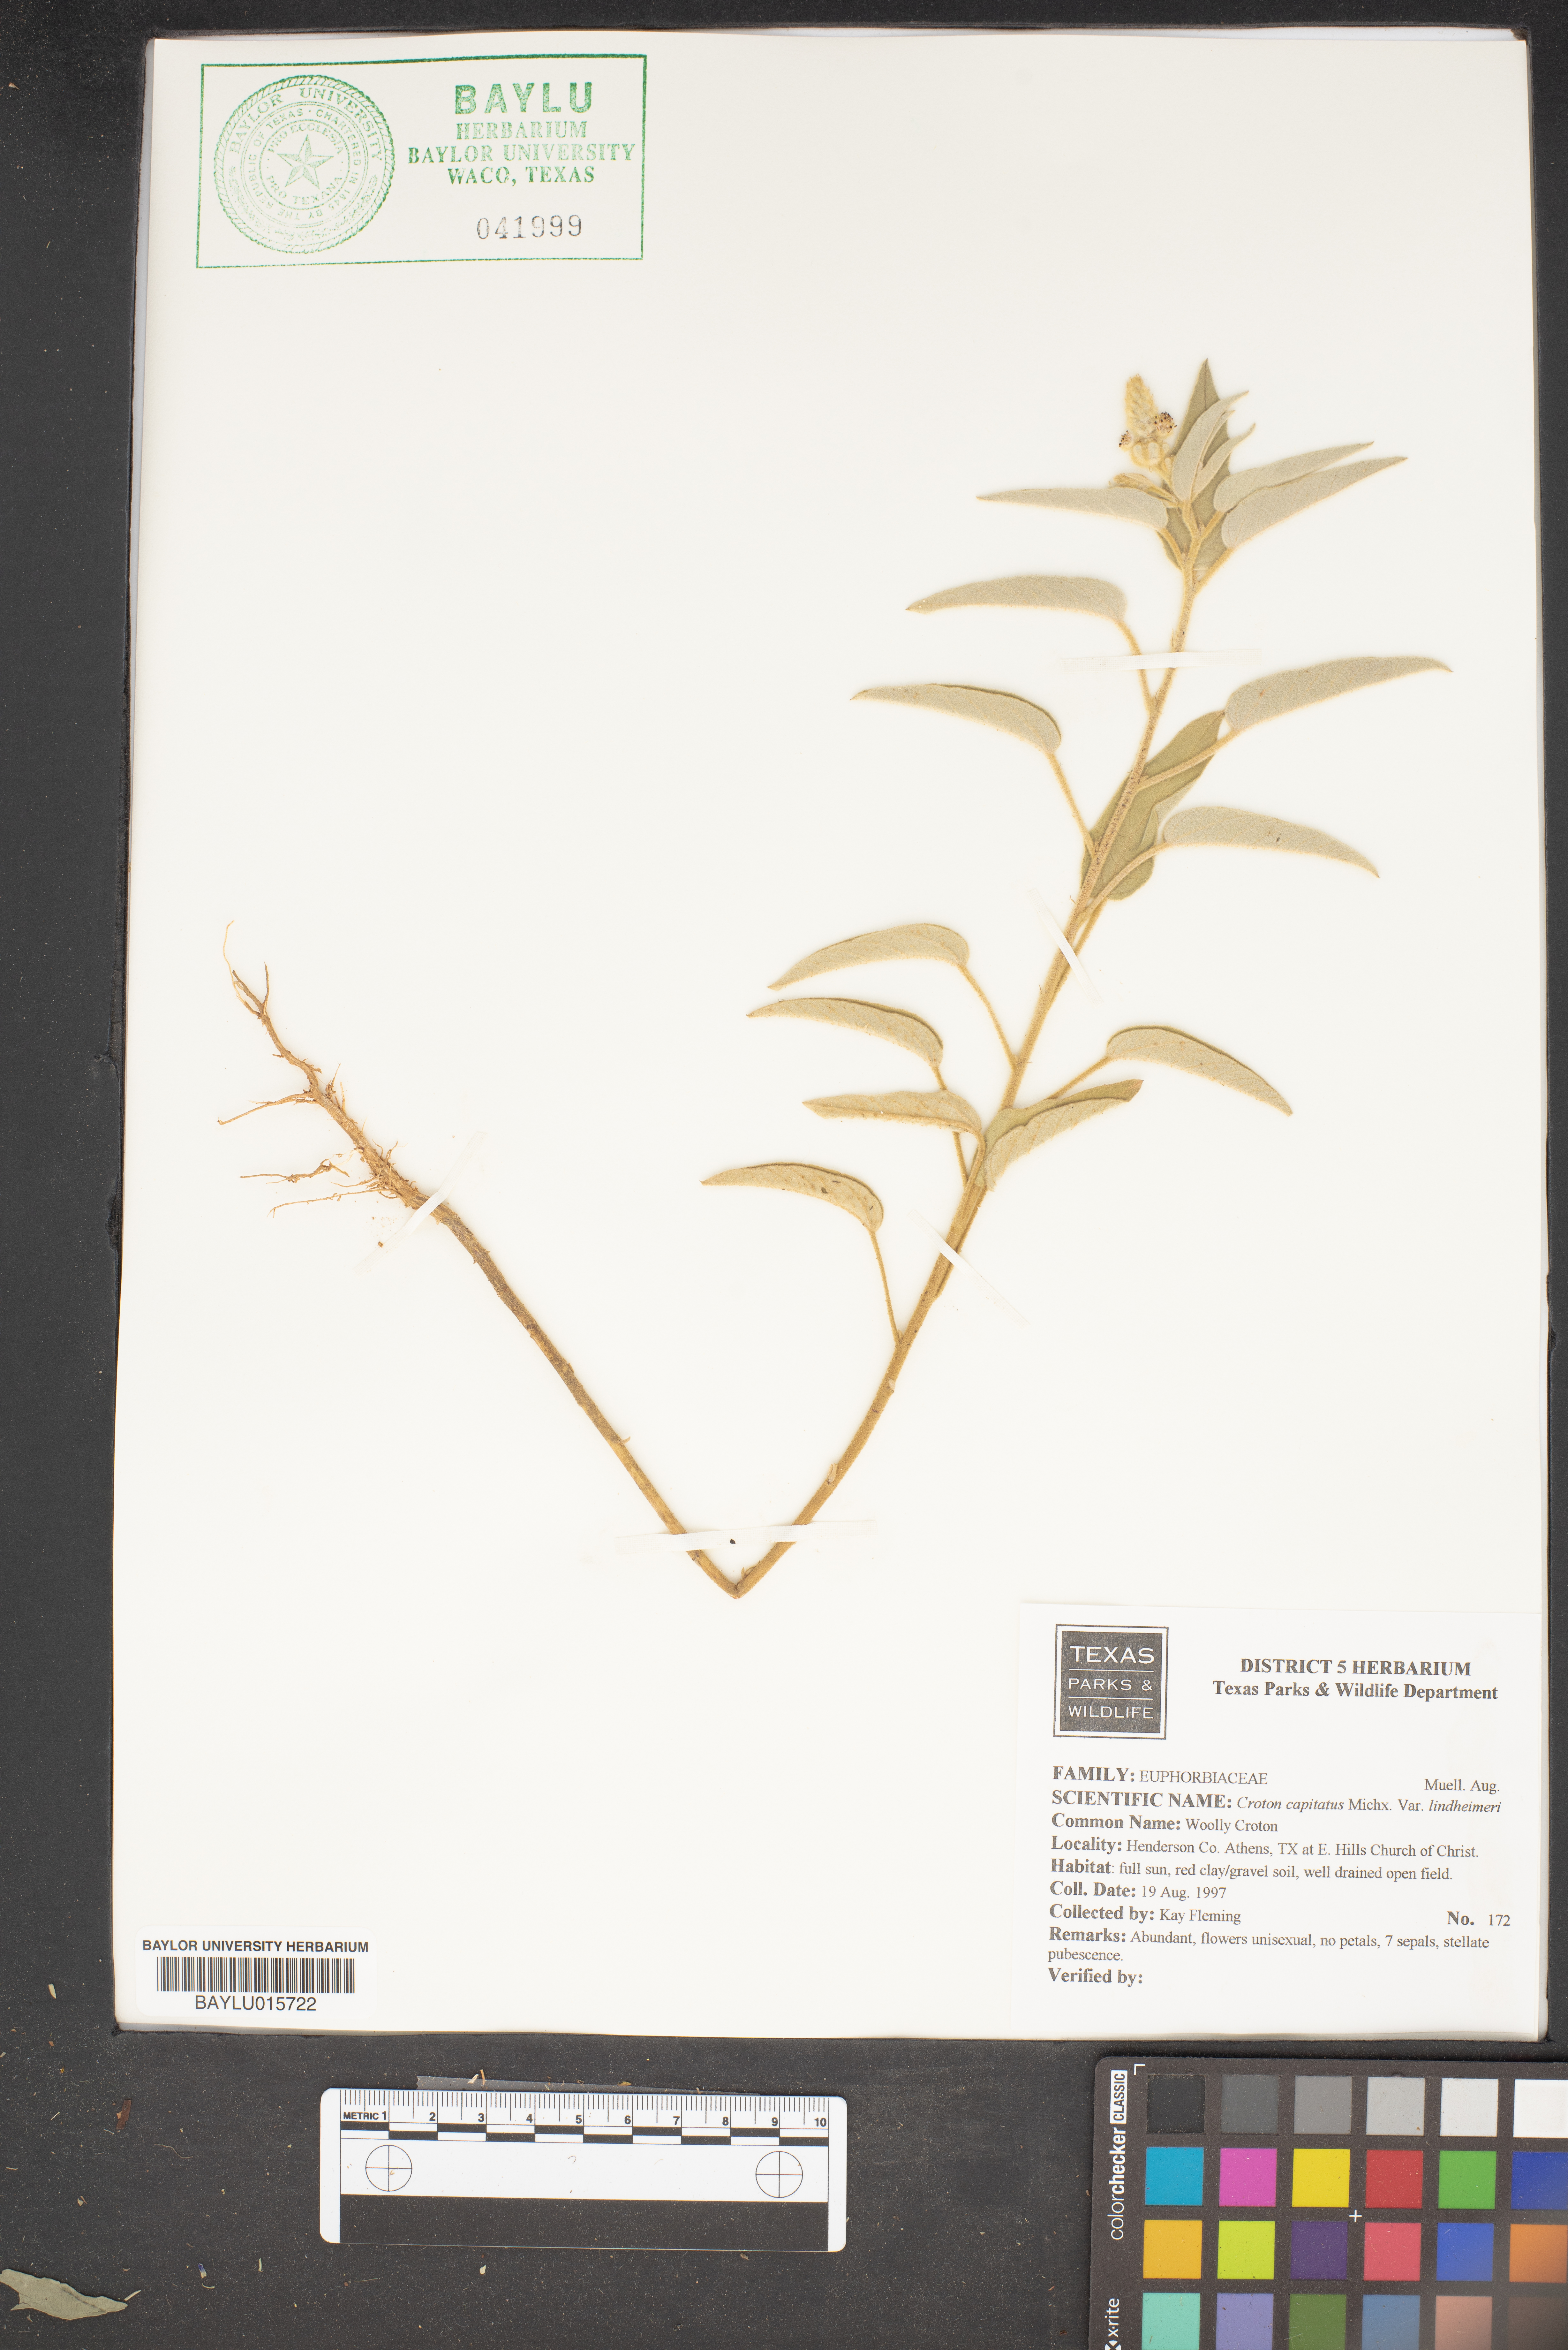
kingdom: Plantae
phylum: Tracheophyta
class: Magnoliopsida
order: Malpighiales
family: Euphorbiaceae
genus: Croton
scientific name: Croton capitatus
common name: Woolly croton
